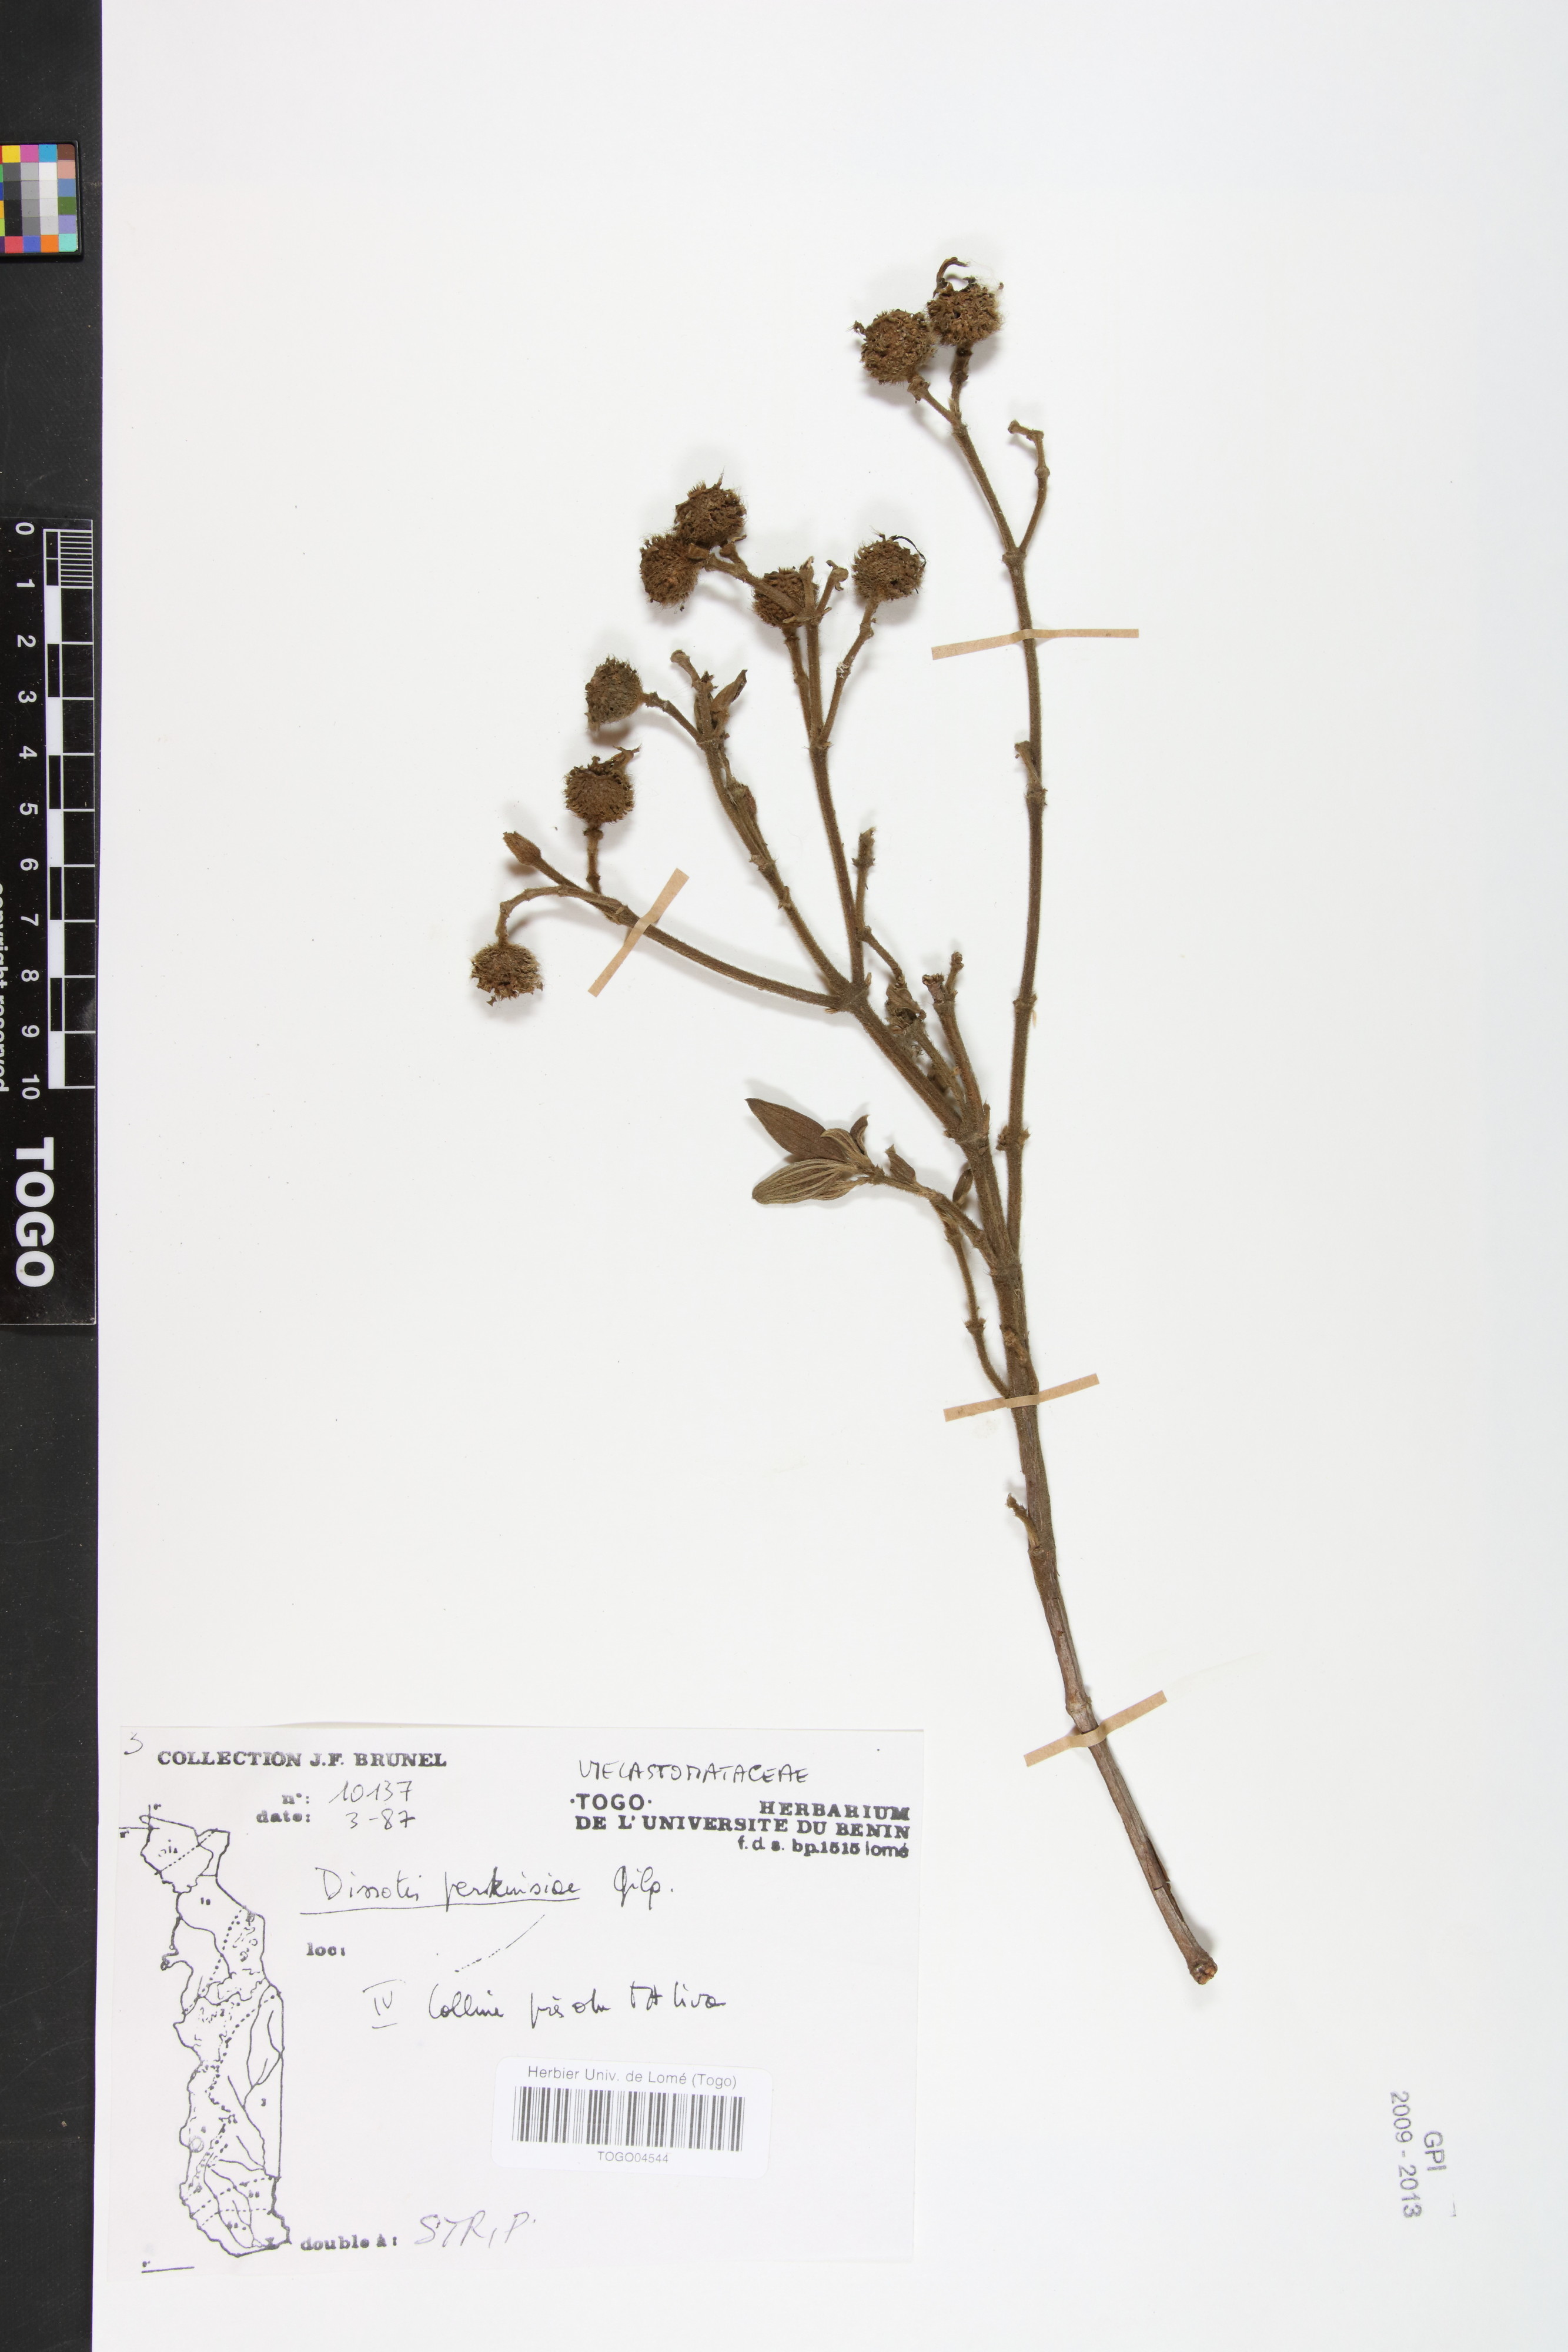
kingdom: Plantae
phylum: Tracheophyta
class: Magnoliopsida
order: Myrtales
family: Melastomataceae
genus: Feliciotis
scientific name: Feliciotis perkinsiae
